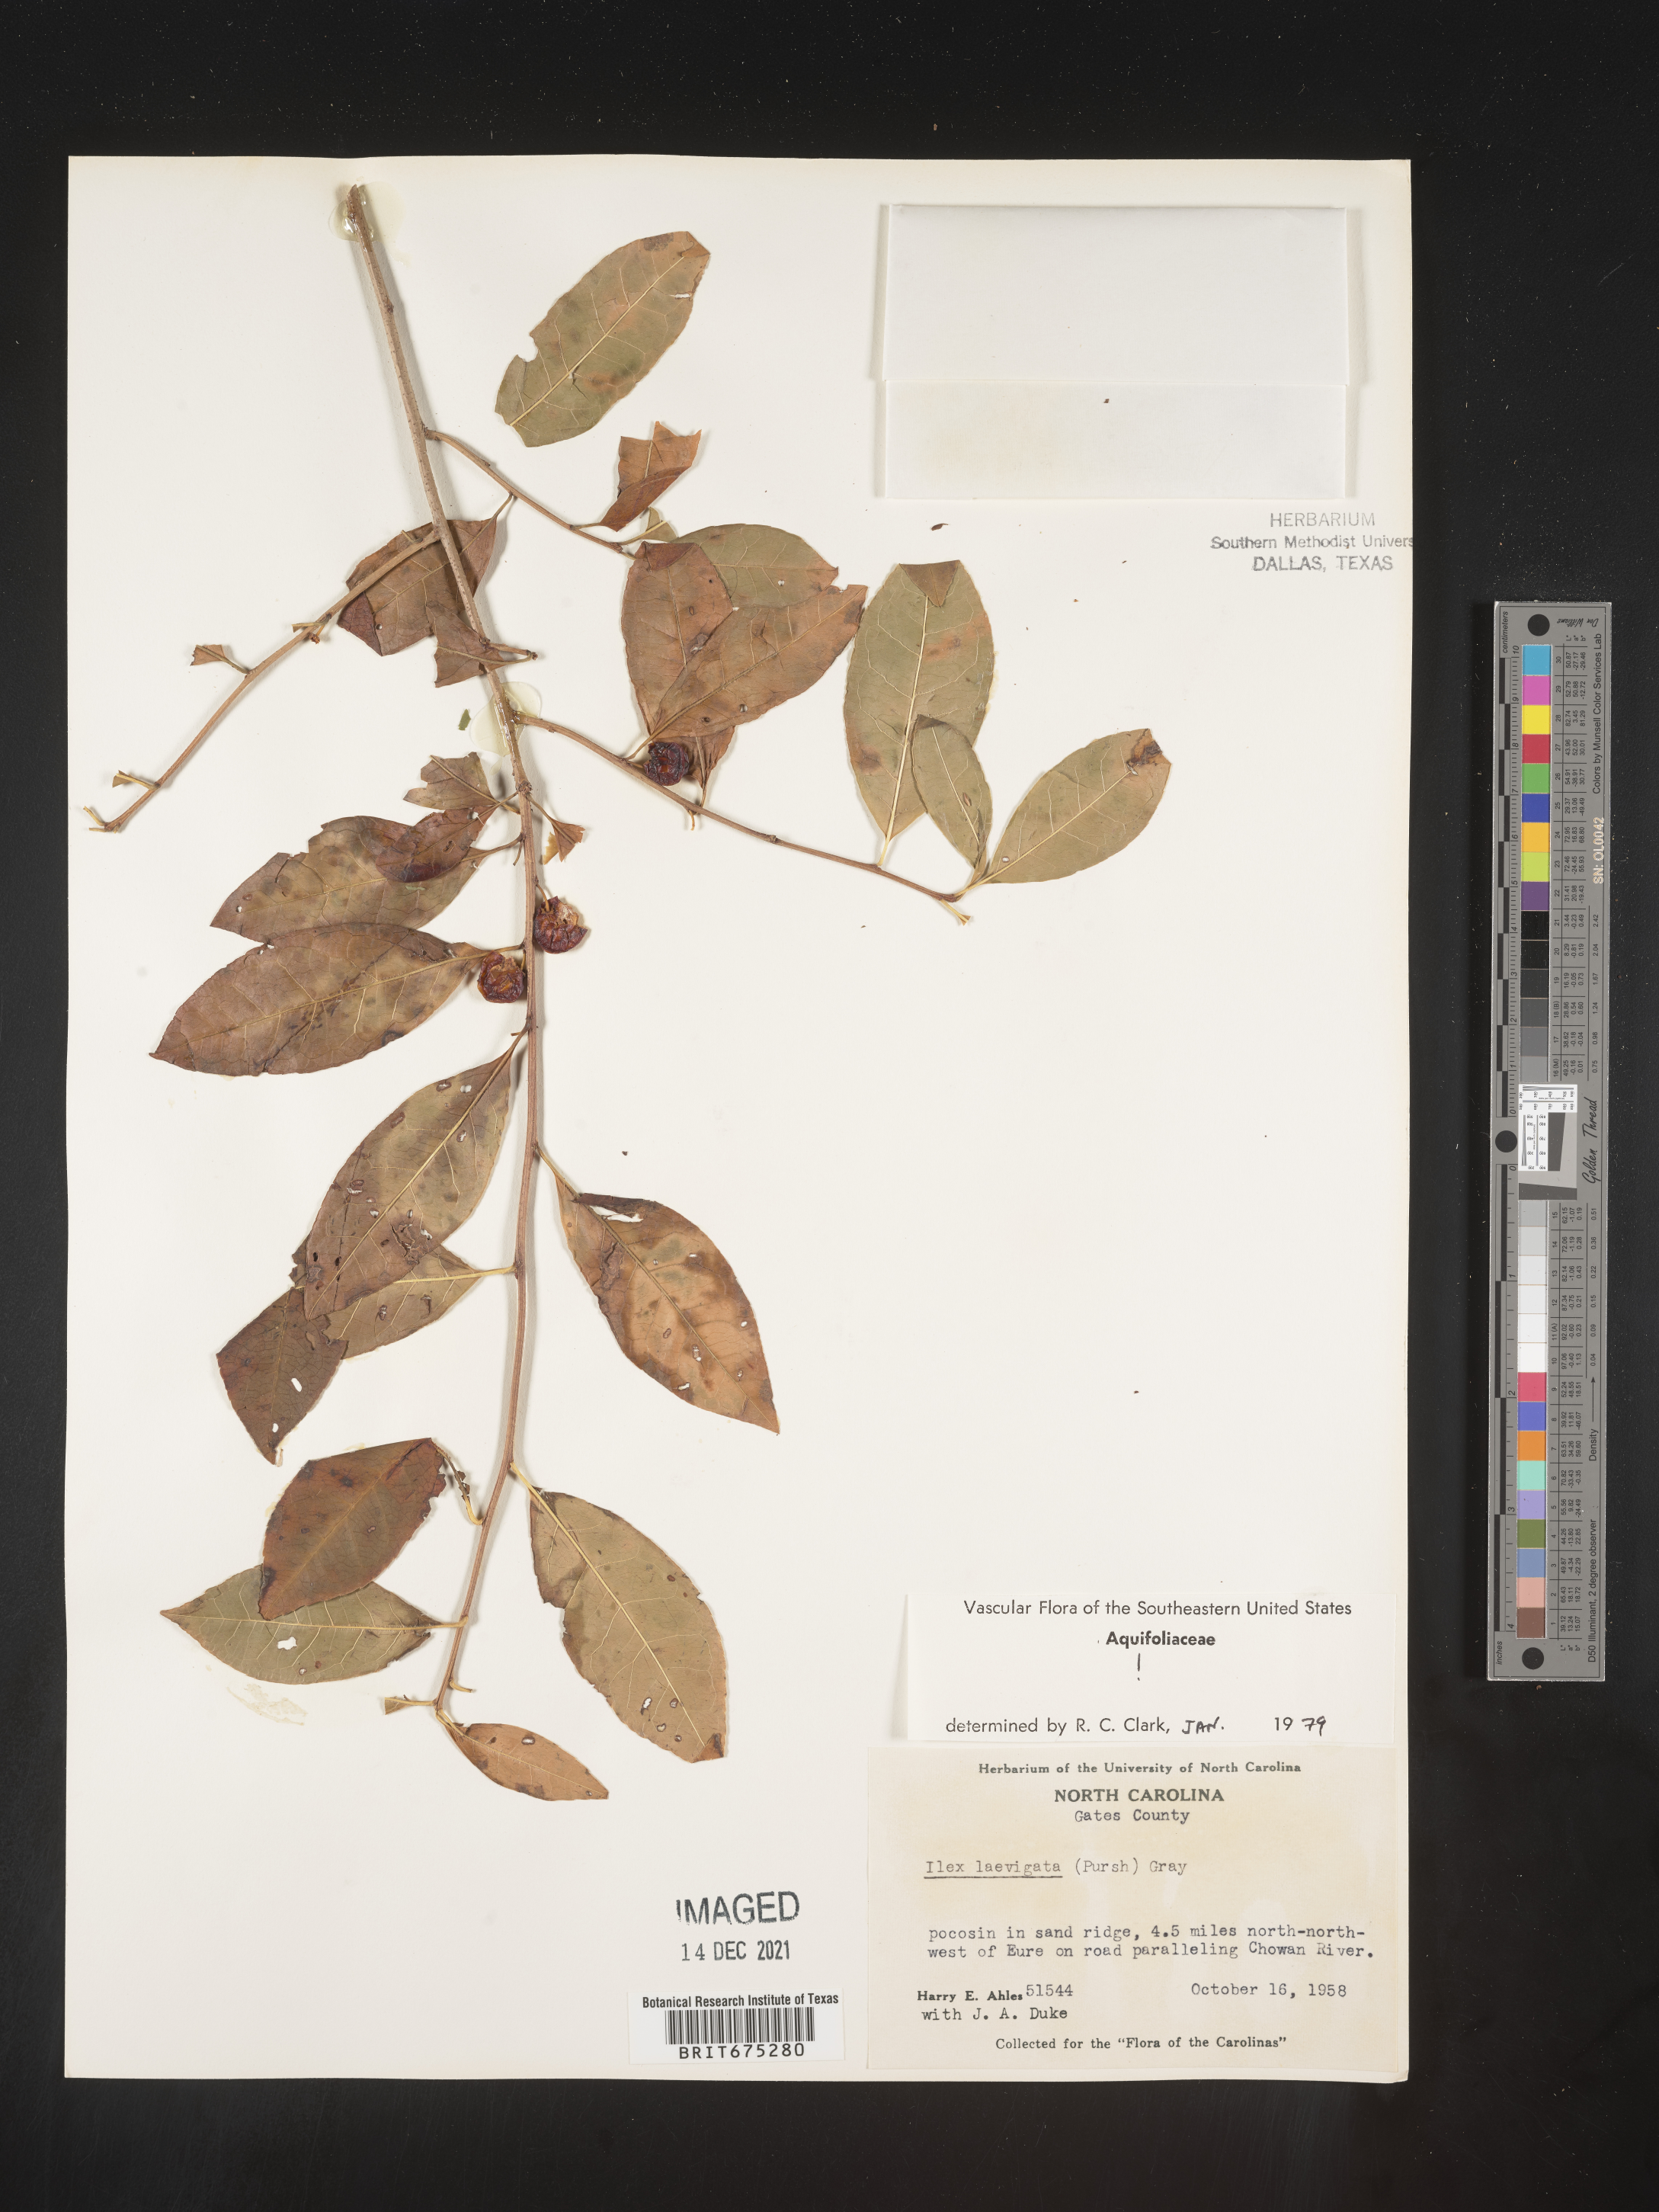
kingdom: Plantae
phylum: Tracheophyta
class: Magnoliopsida
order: Aquifoliales
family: Aquifoliaceae
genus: Ilex
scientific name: Ilex laevigata
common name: Smooth winterberry
